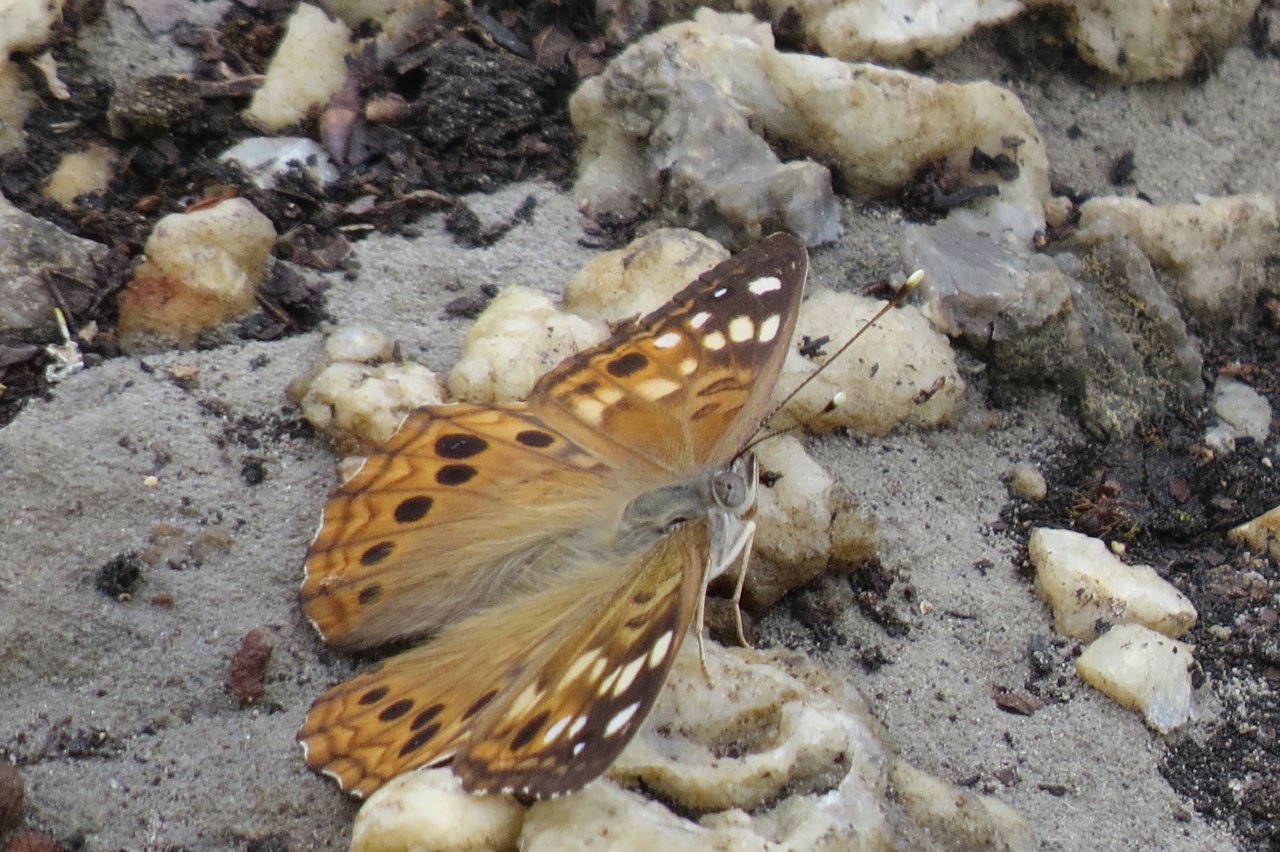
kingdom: Animalia
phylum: Arthropoda
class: Insecta
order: Lepidoptera
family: Nymphalidae
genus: Asterocampa
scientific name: Asterocampa celtis
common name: Hackberry Emperor
